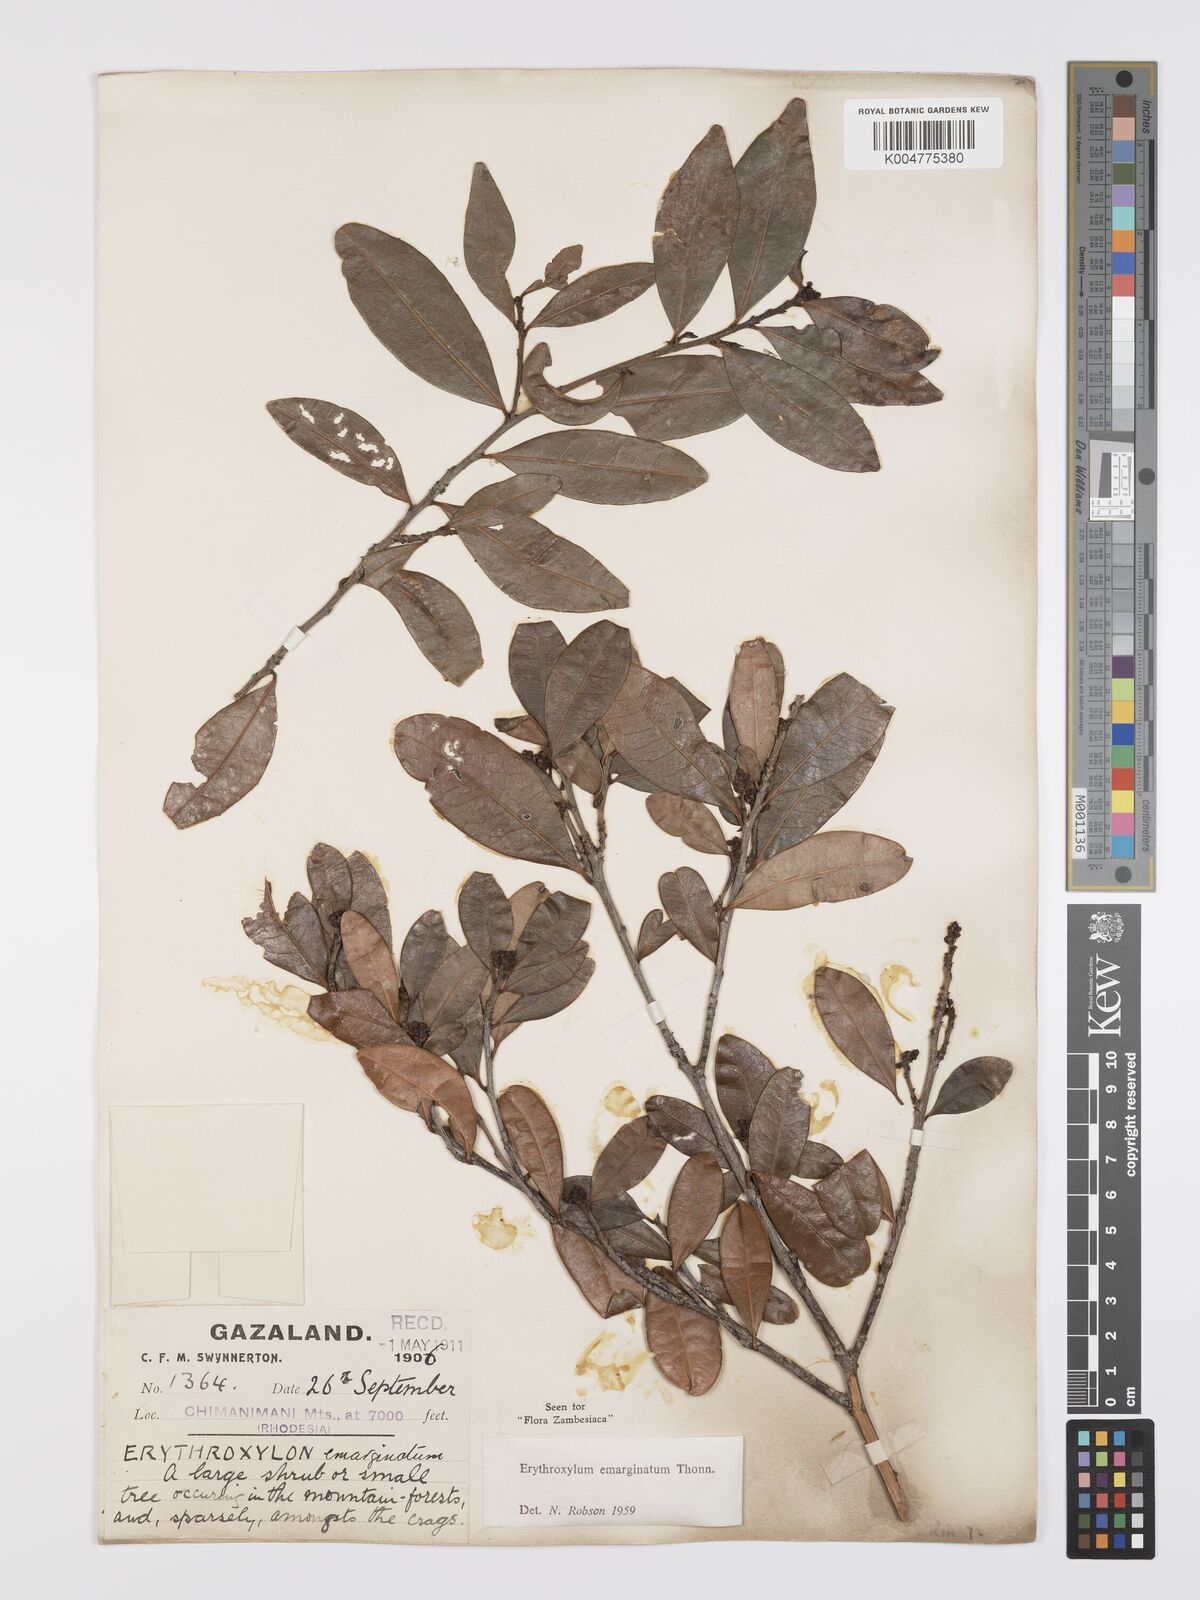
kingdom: Plantae
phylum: Tracheophyta
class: Magnoliopsida
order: Malpighiales
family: Erythroxylaceae
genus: Erythroxylum
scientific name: Erythroxylum emarginatum
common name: African coca-tree
